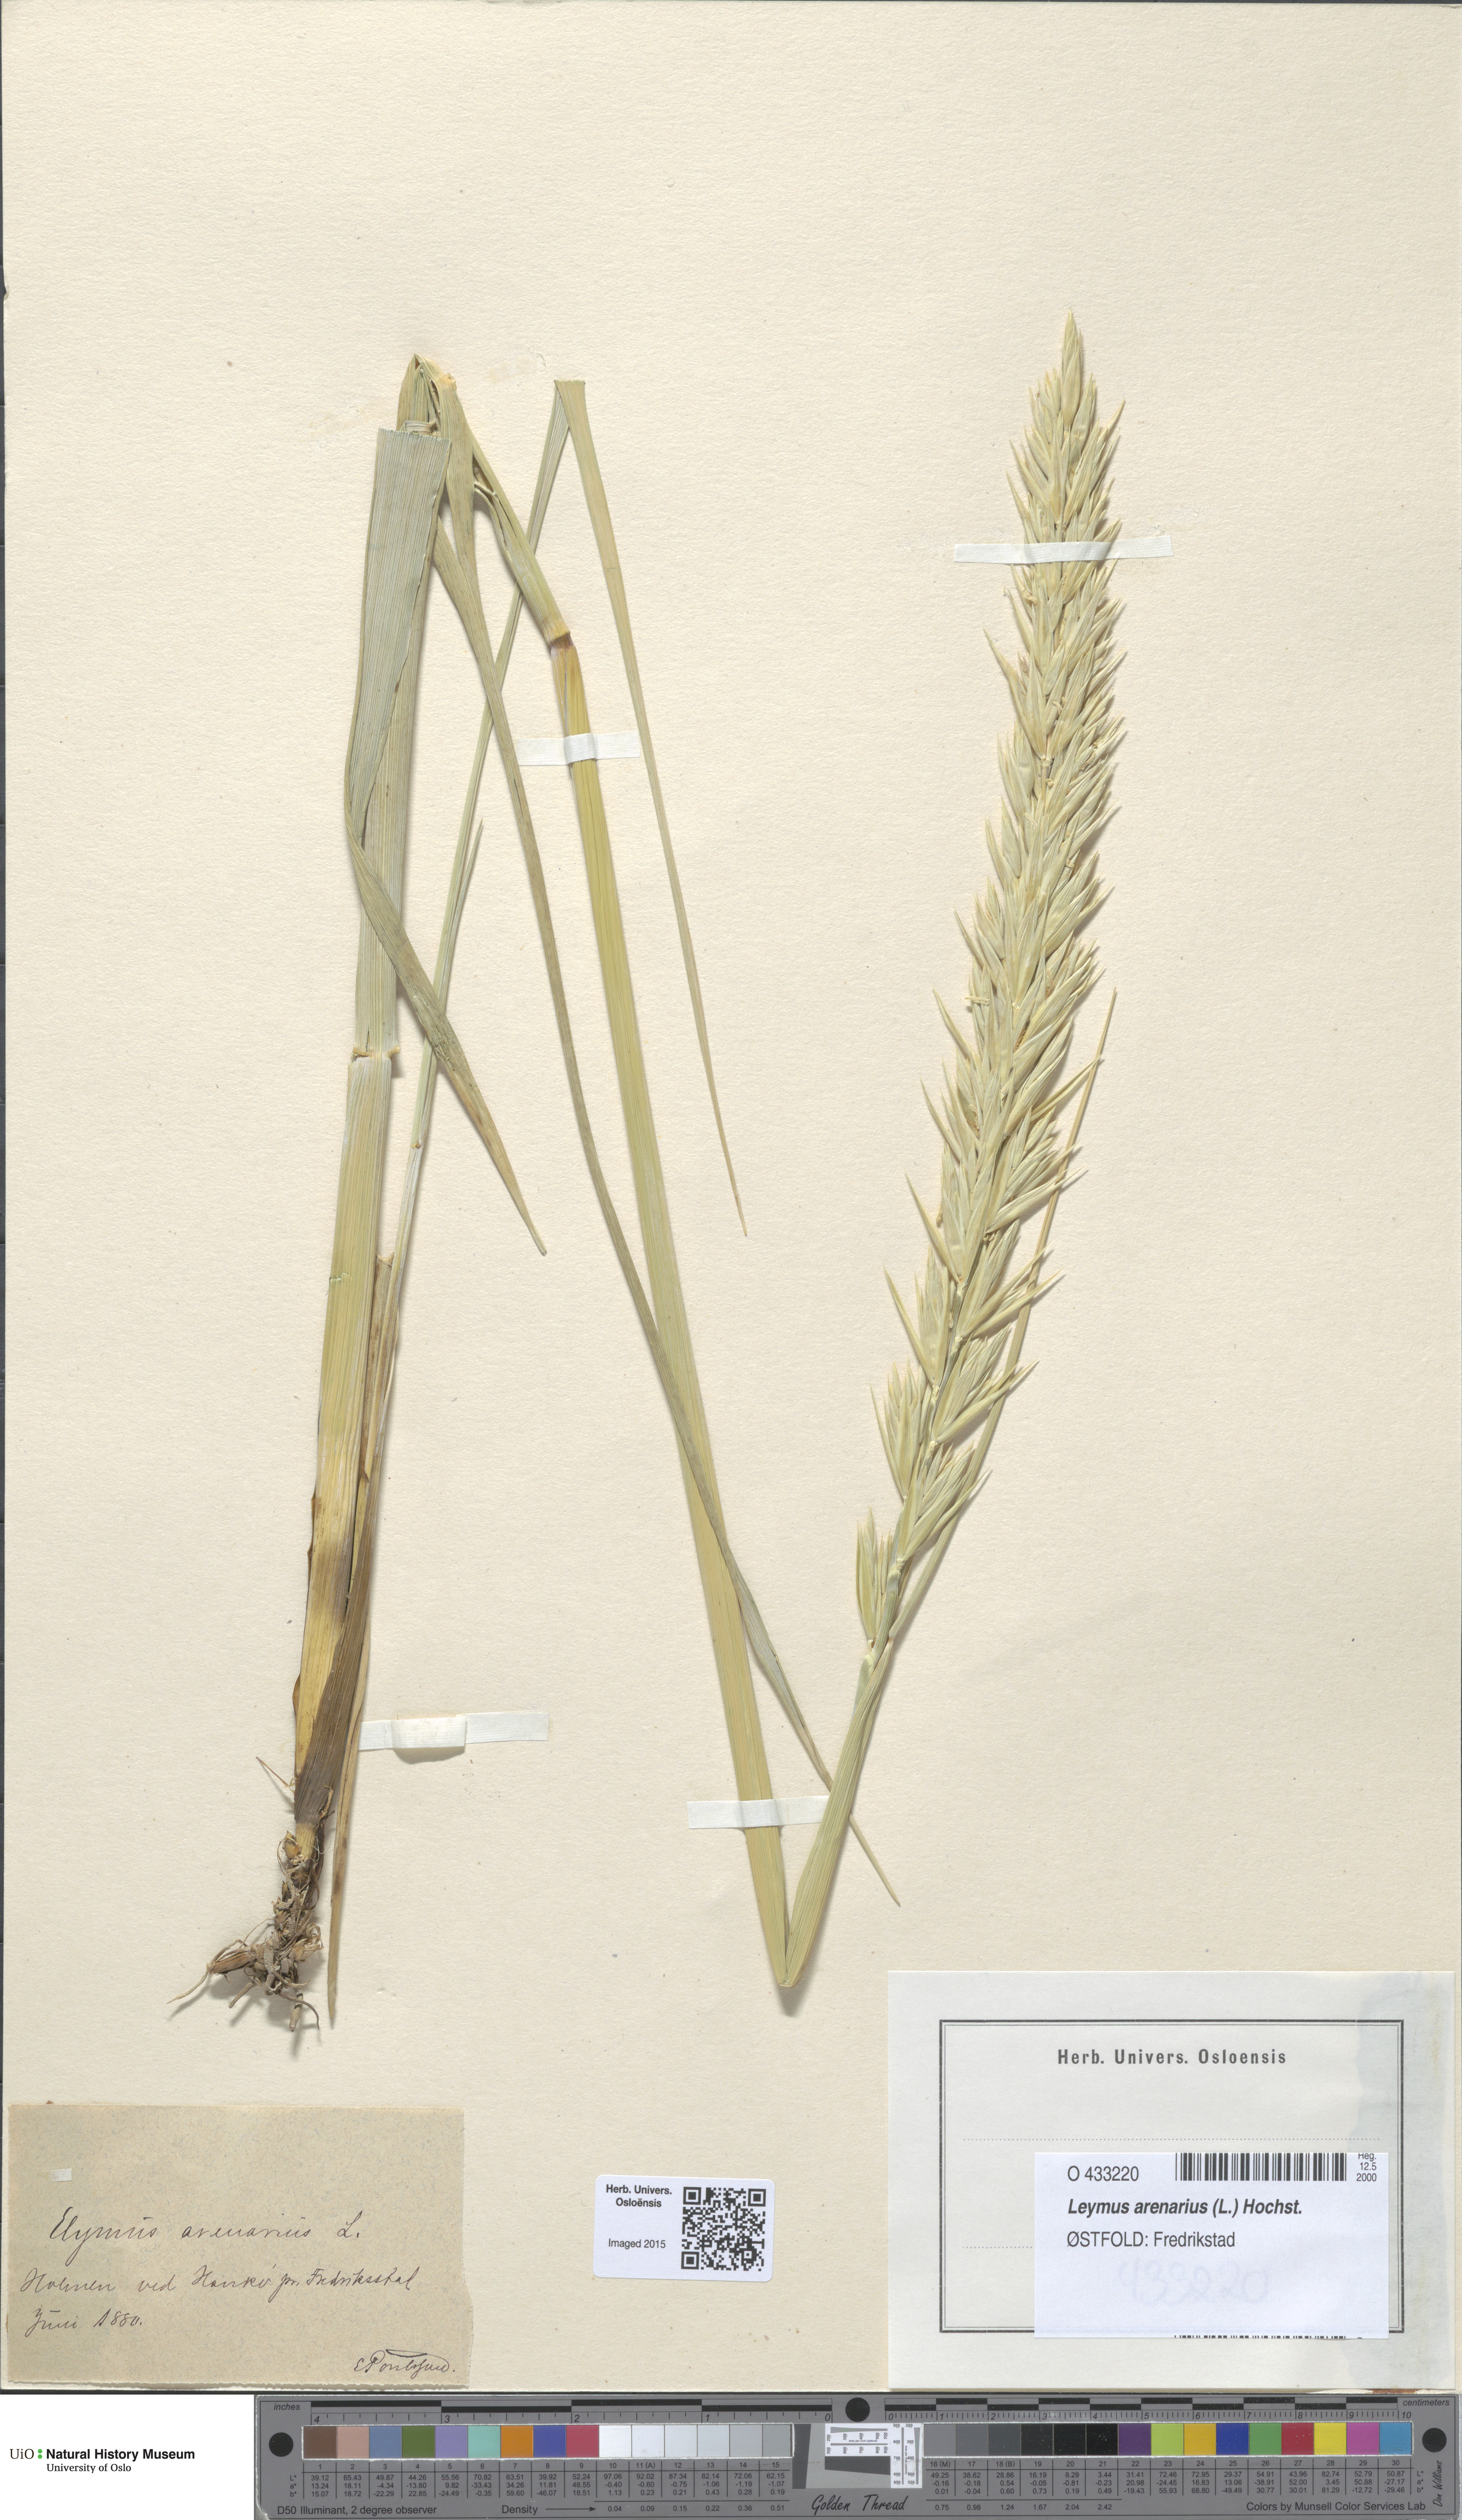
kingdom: Plantae
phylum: Tracheophyta
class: Liliopsida
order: Poales
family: Poaceae
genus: Leymus
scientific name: Leymus arenarius
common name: Lyme-grass
